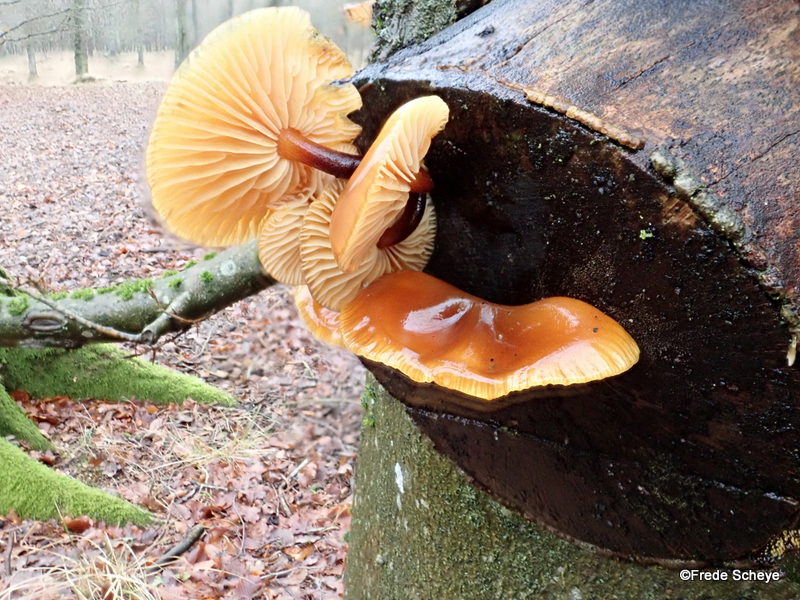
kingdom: Fungi
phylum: Basidiomycota
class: Agaricomycetes
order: Agaricales
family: Physalacriaceae
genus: Flammulina
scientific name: Flammulina velutipes
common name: gul fløjlsfod
